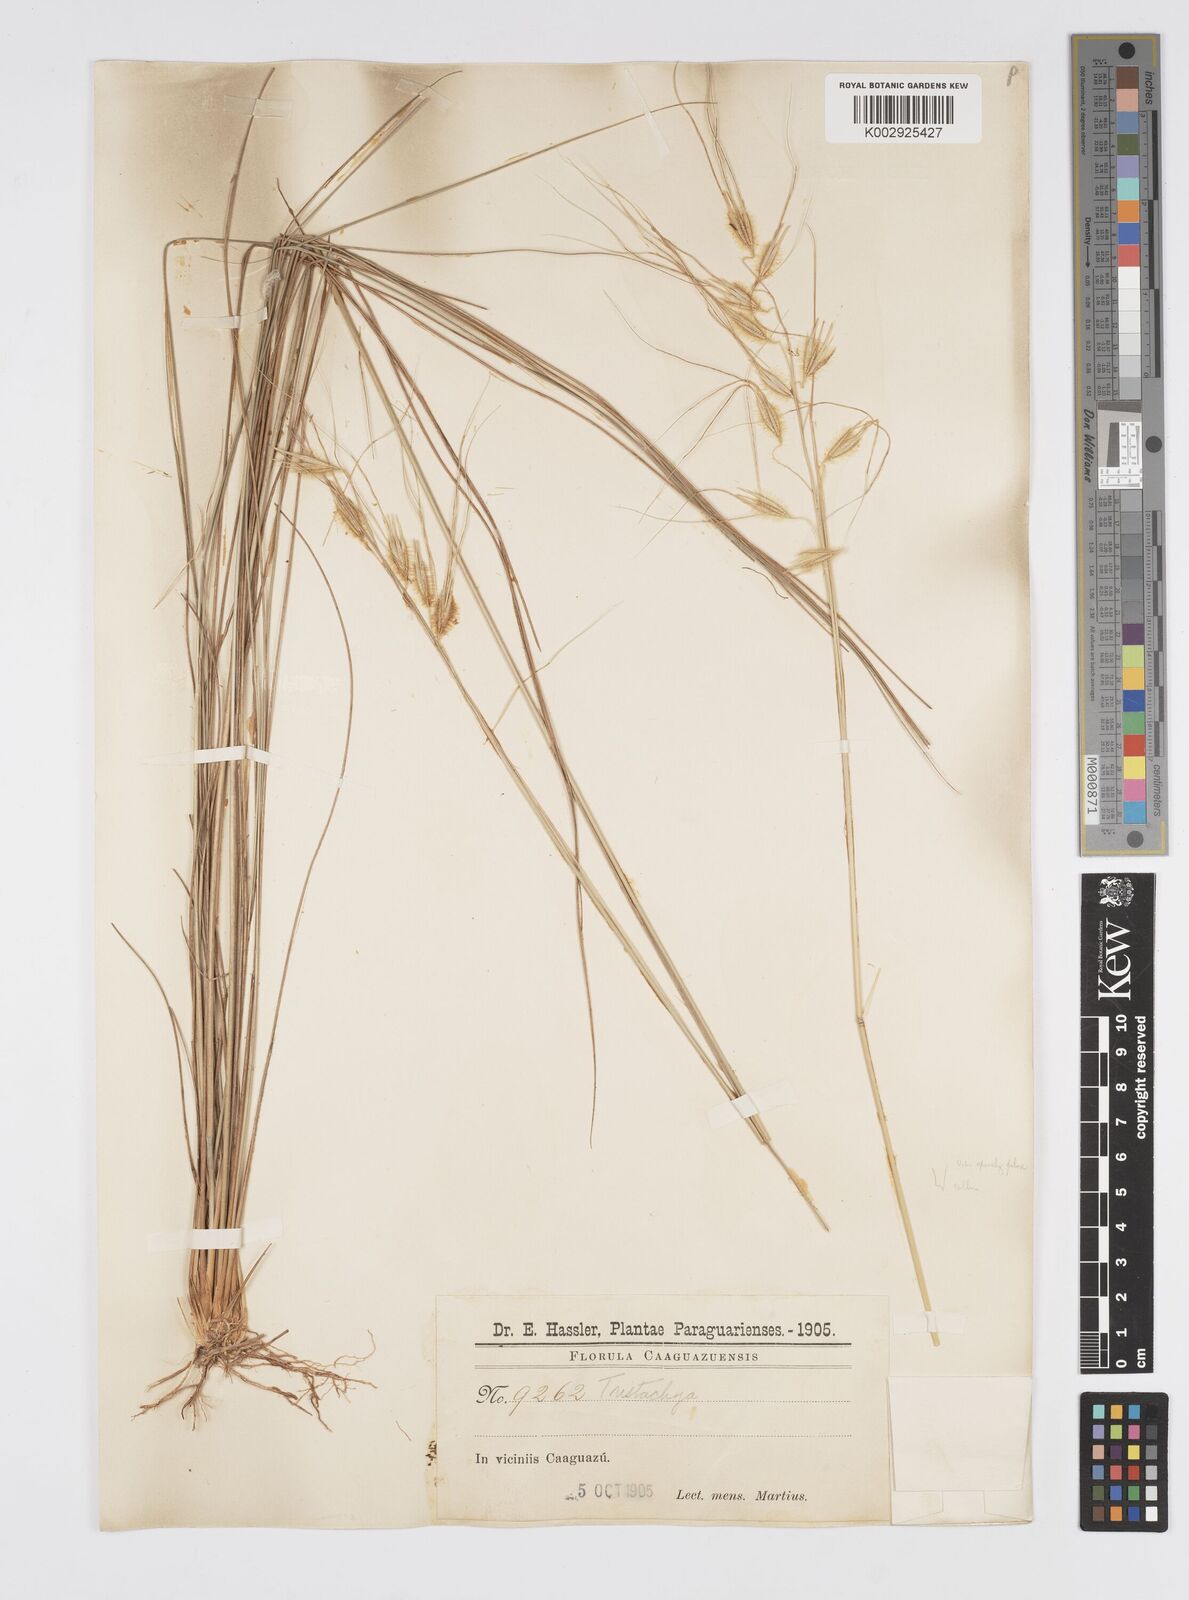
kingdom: Plantae
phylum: Tracheophyta
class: Liliopsida
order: Poales
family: Poaceae
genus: Loudetiopsis
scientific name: Loudetiopsis chrysothrix
